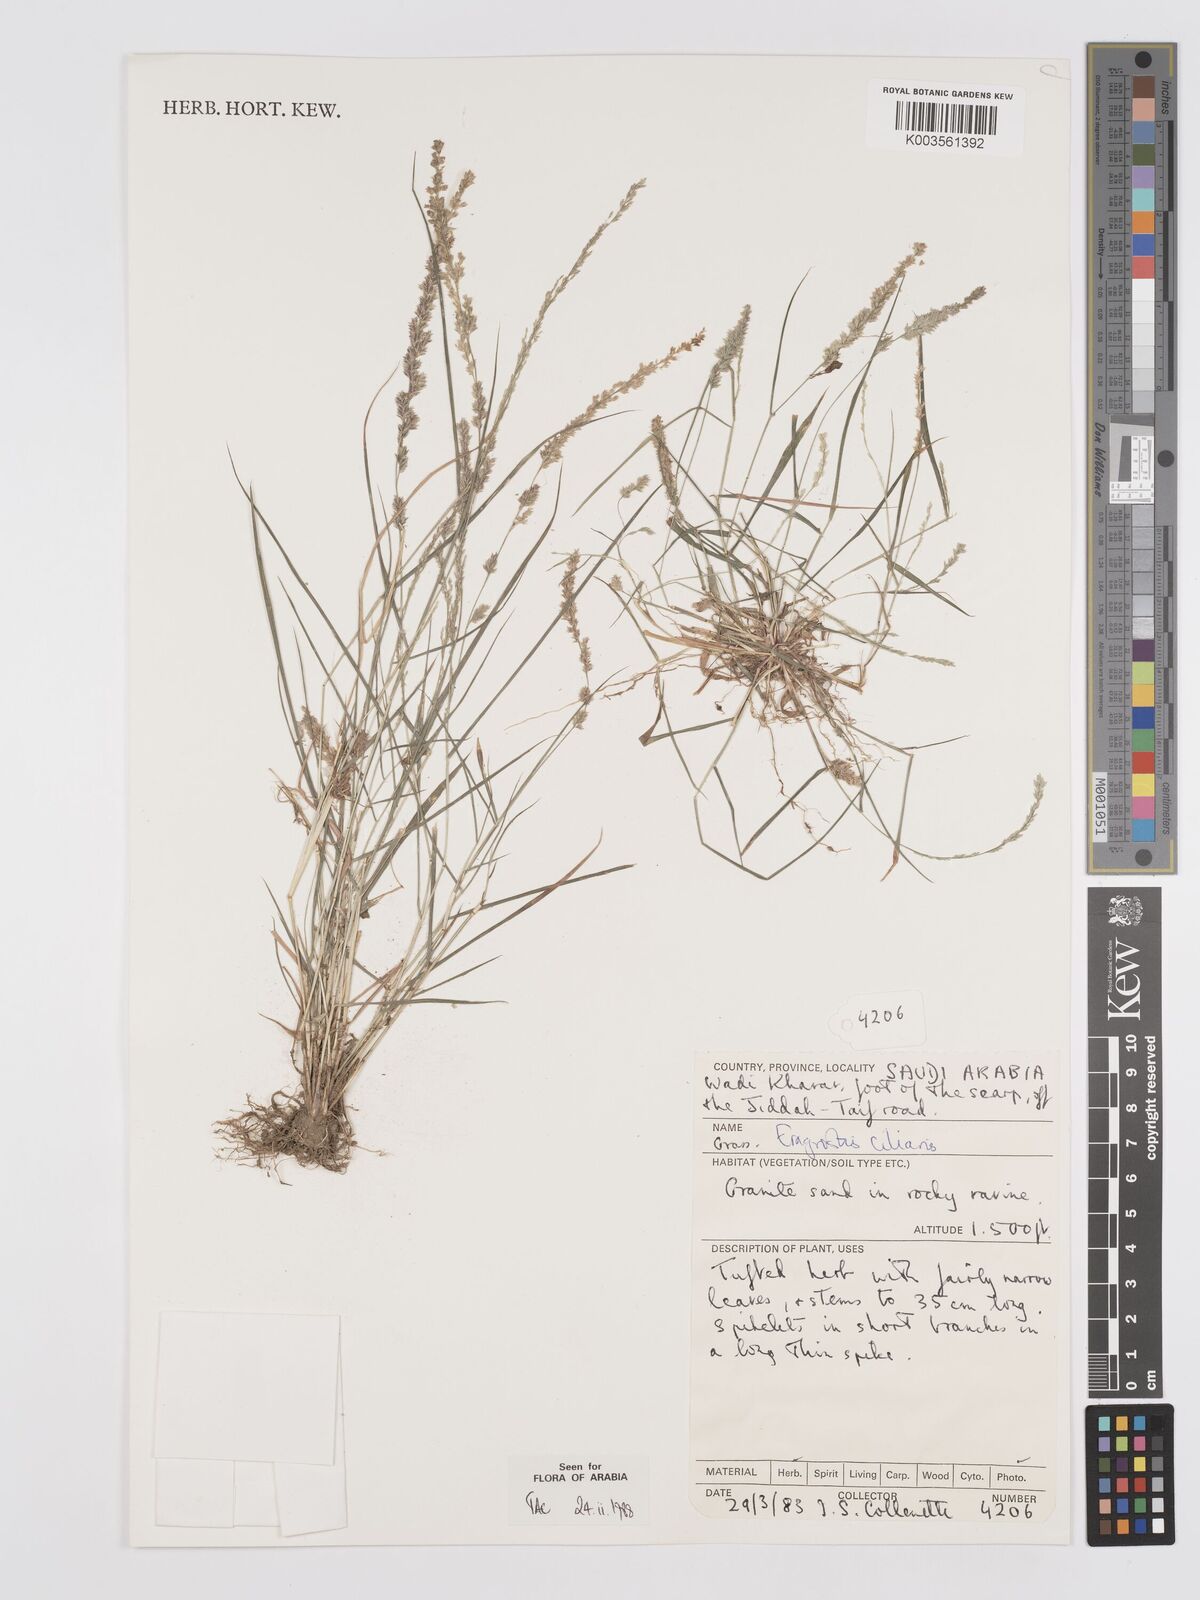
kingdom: Plantae
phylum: Tracheophyta
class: Liliopsida
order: Poales
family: Poaceae
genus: Eragrostis
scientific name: Eragrostis ciliaris
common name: Gophertail lovegrass
